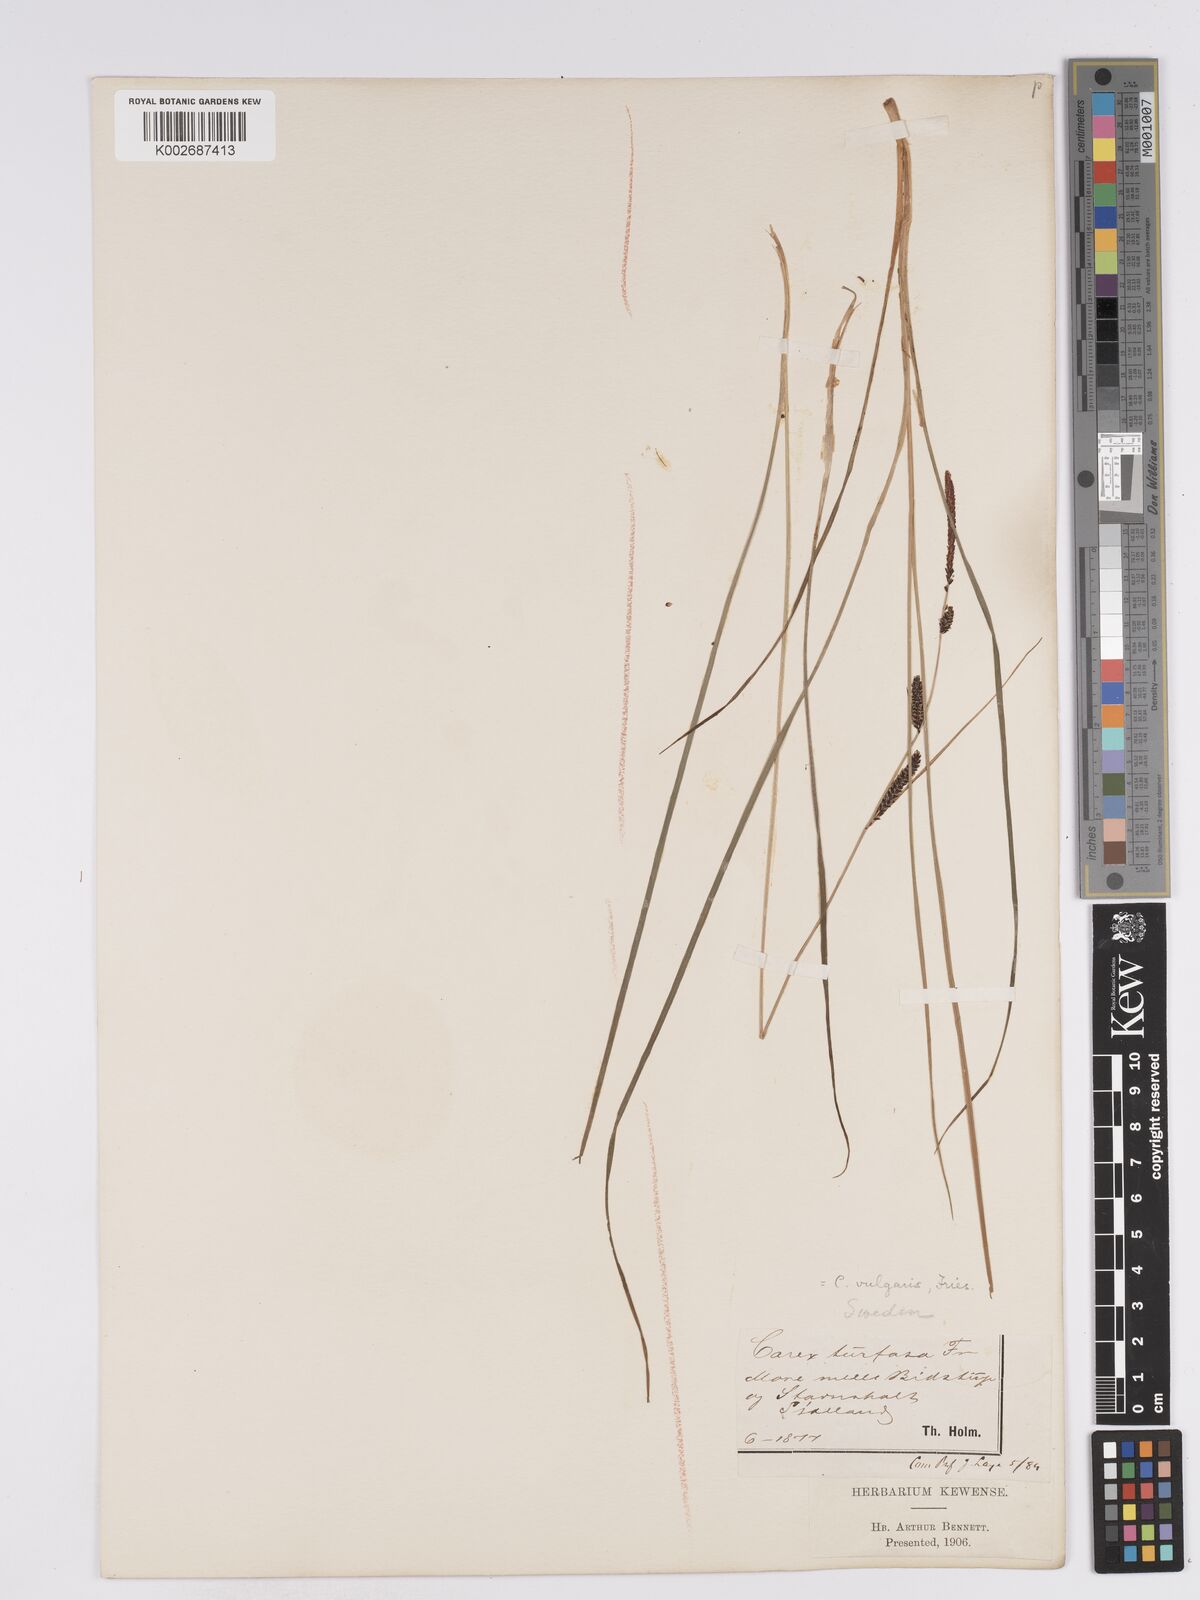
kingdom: Plantae
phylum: Tracheophyta
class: Liliopsida
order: Poales
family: Cyperaceae
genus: Carex
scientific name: Carex nigra
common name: Common sedge
